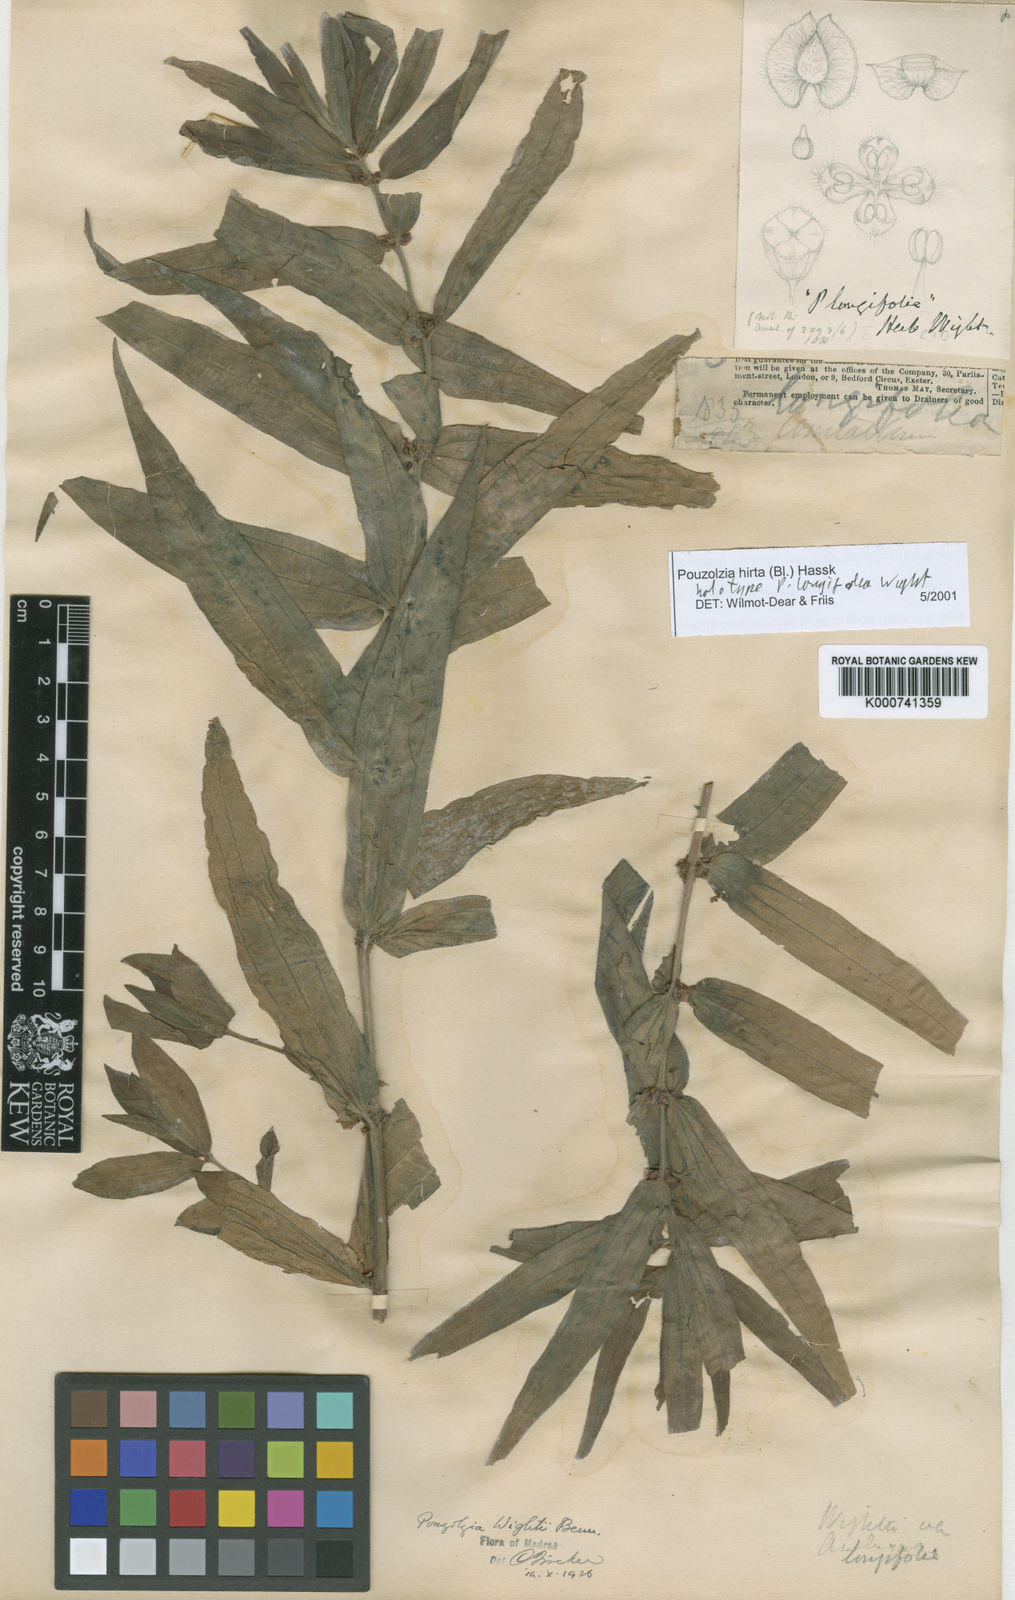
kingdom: Plantae
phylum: Tracheophyta
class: Magnoliopsida
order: Rosales
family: Urticaceae
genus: Gonostegia
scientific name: Gonostegia triandra
